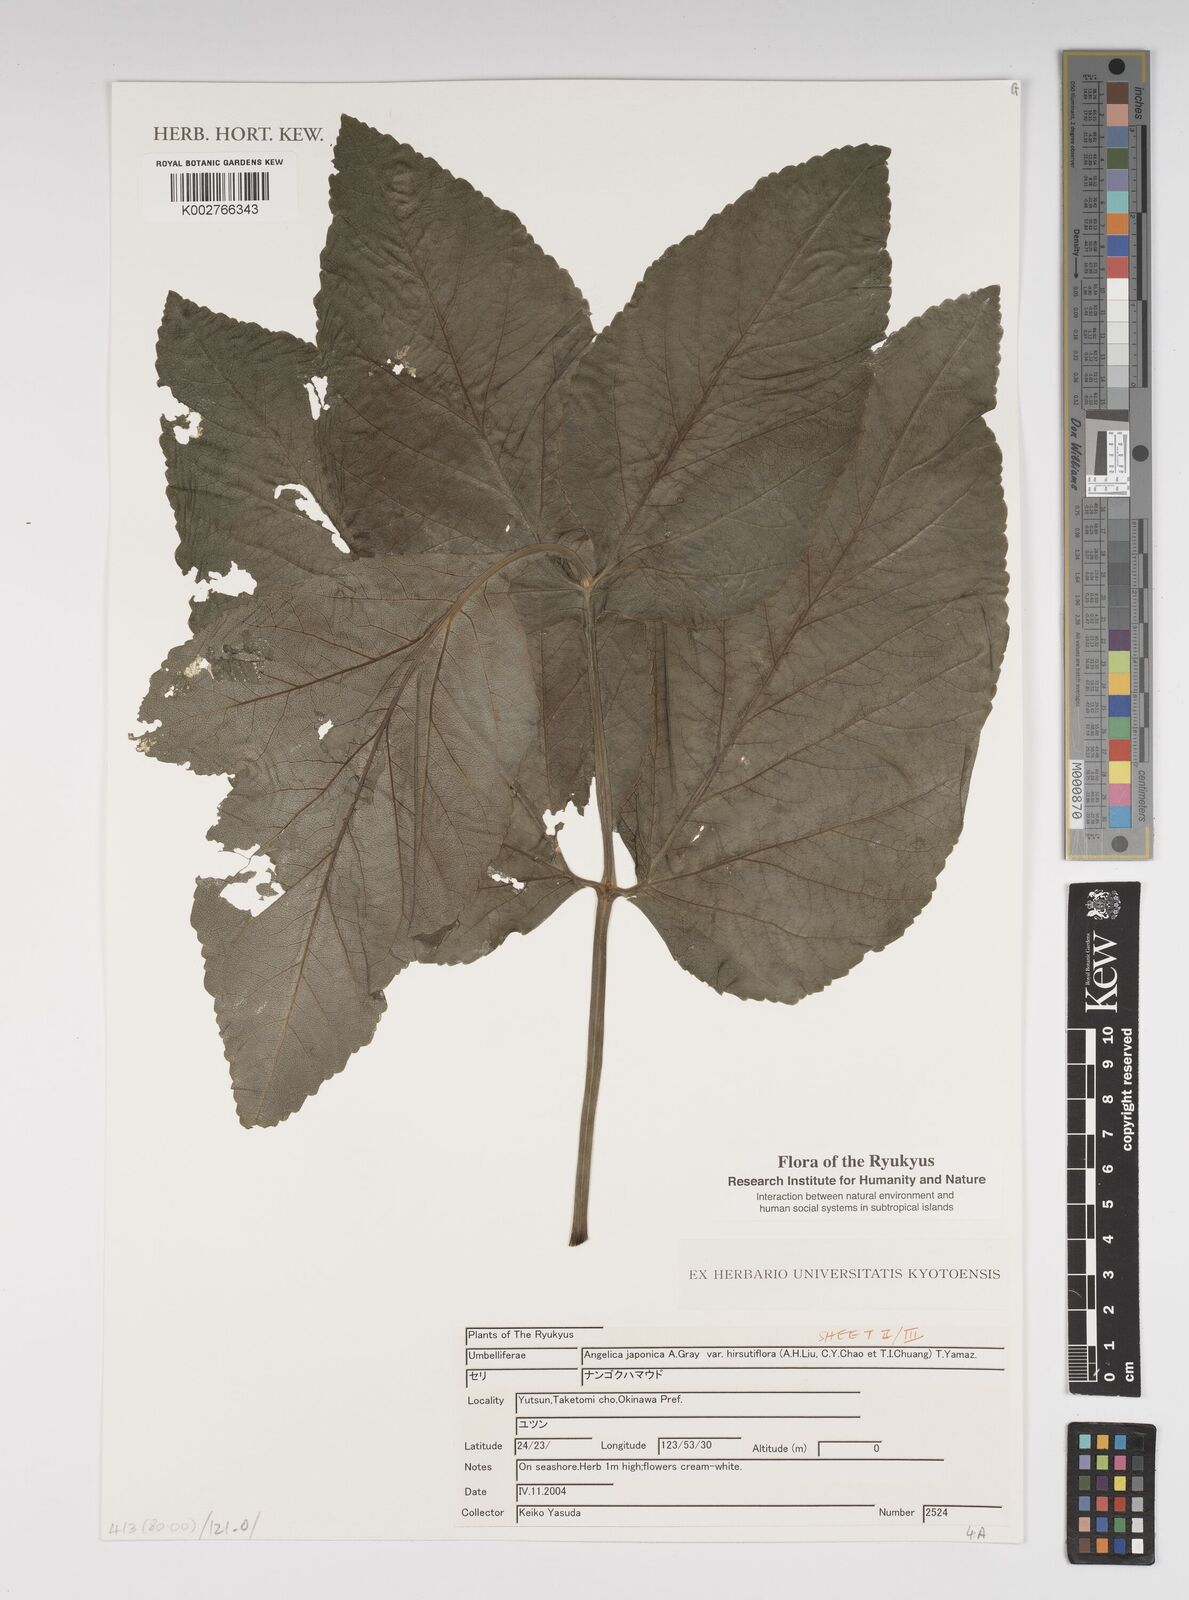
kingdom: Plantae
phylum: Tracheophyta
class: Magnoliopsida
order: Apiales
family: Apiaceae
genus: Angelica
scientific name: Angelica
